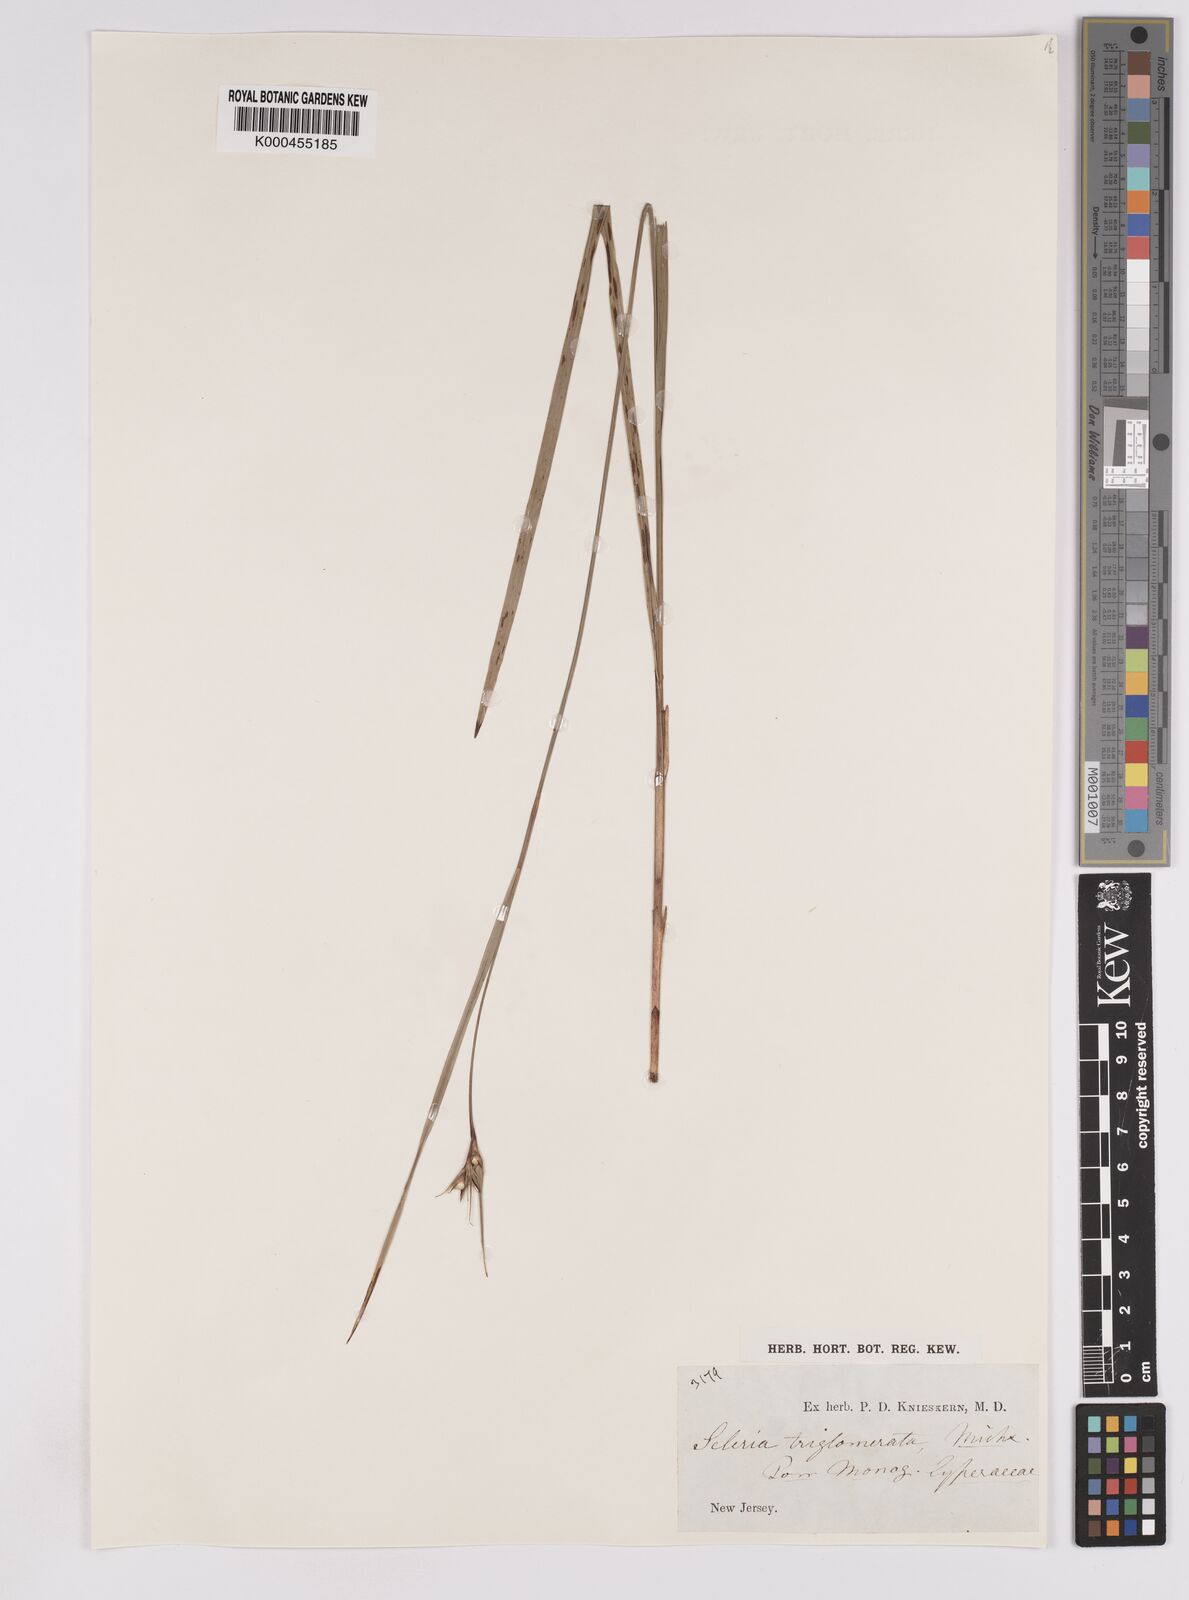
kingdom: Plantae
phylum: Tracheophyta
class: Liliopsida
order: Poales
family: Cyperaceae
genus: Scleria
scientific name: Scleria triglomerata
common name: Whip nutrush
